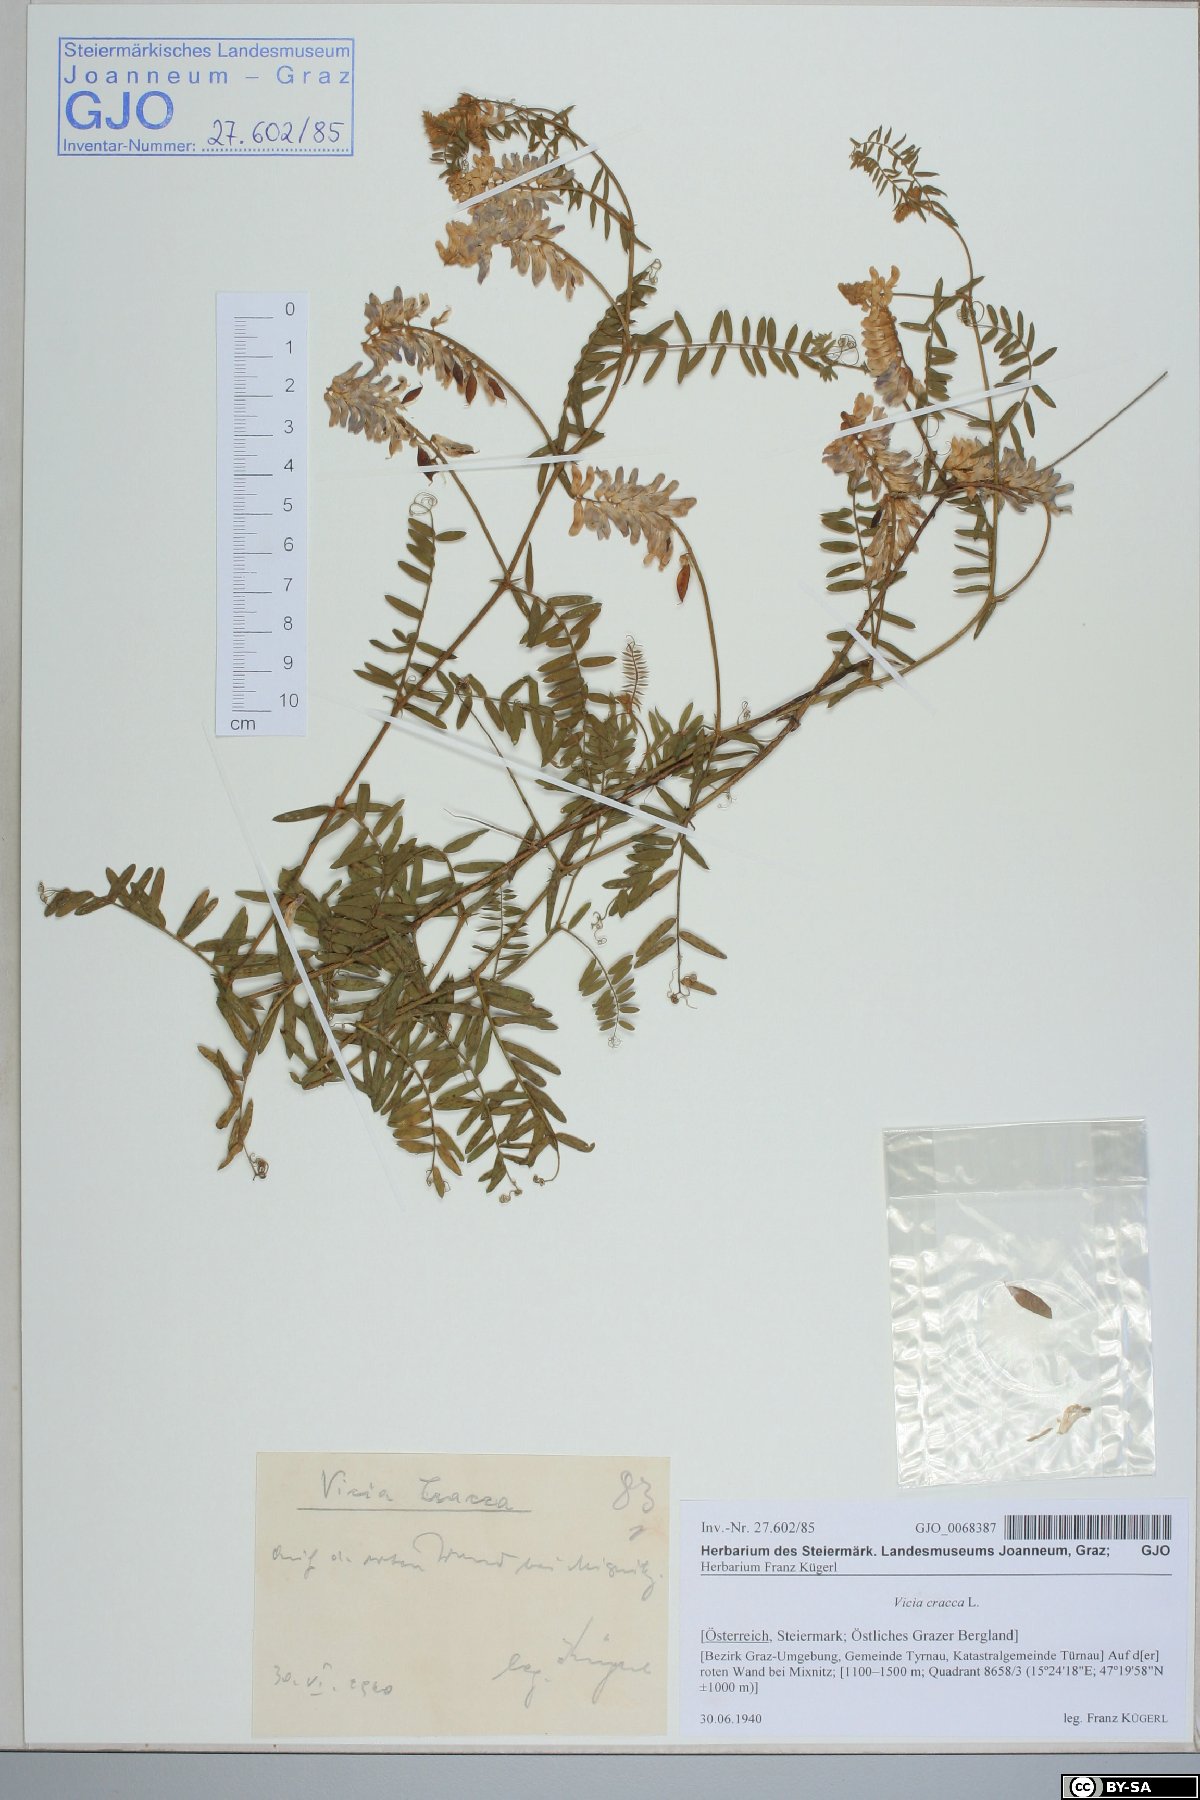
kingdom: Plantae
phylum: Tracheophyta
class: Magnoliopsida
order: Fabales
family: Fabaceae
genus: Vicia
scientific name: Vicia cracca
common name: Bird vetch
